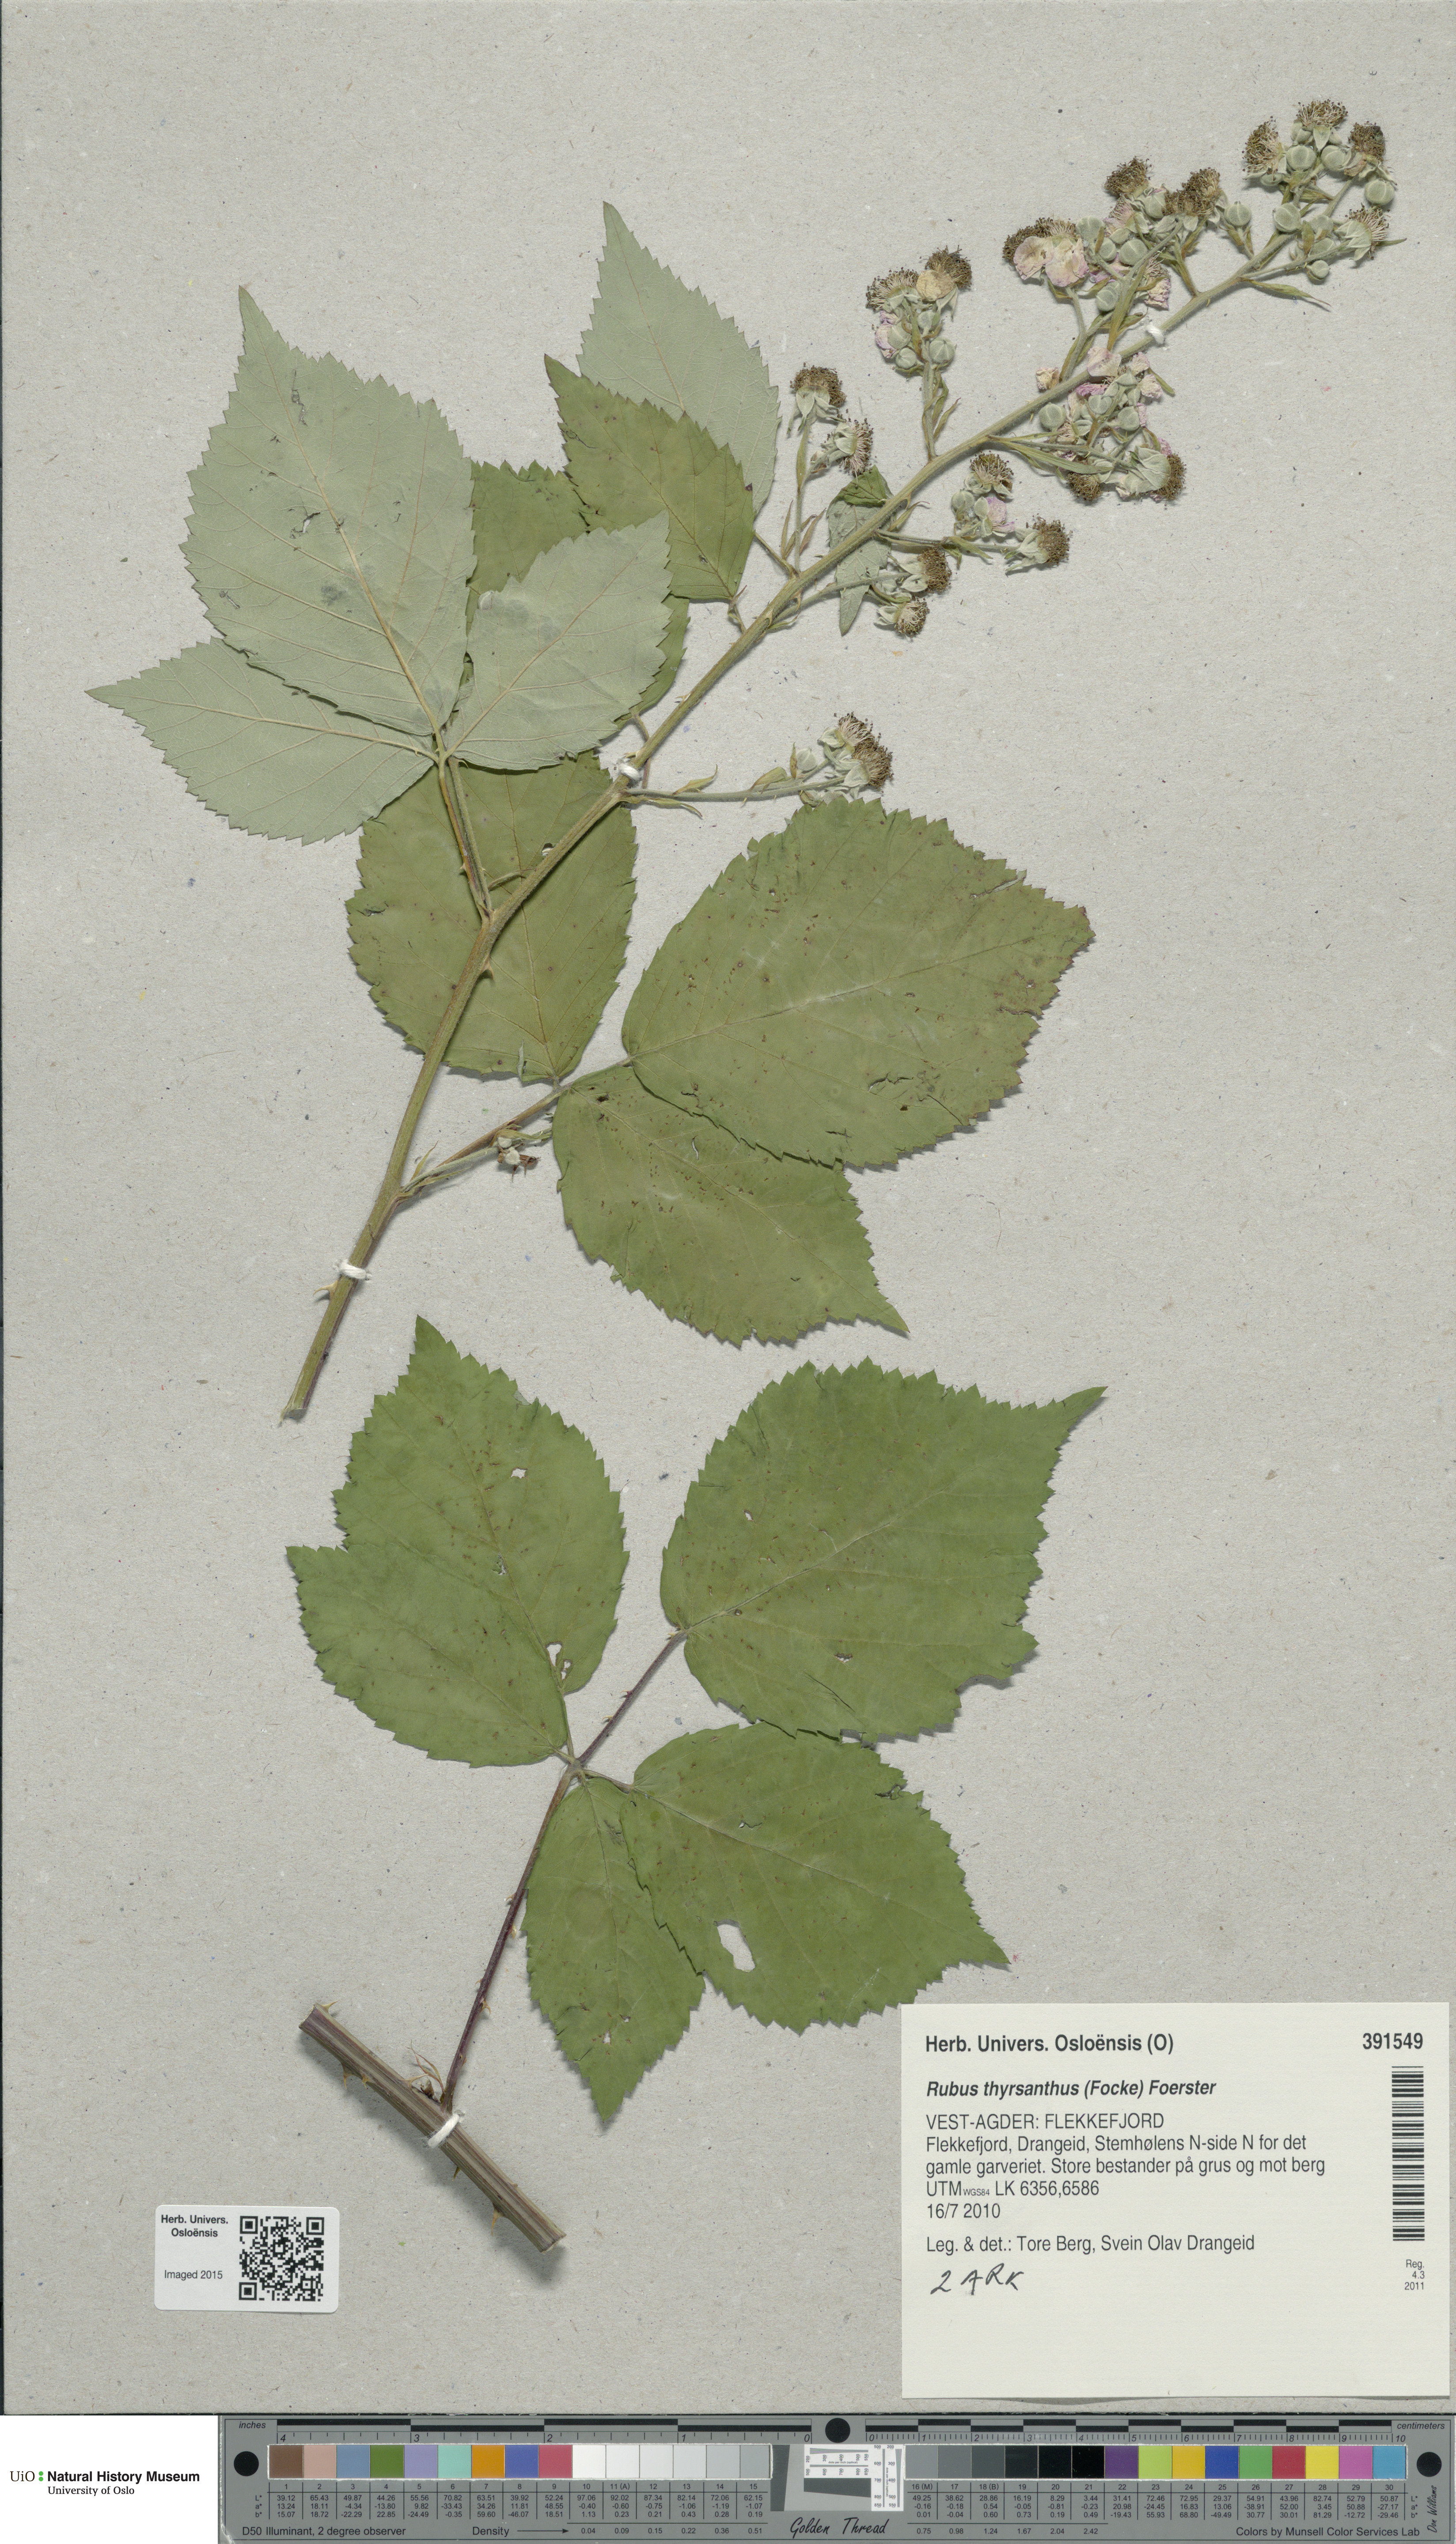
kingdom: Plantae
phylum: Tracheophyta
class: Magnoliopsida
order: Rosales
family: Rosaceae
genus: Rubus
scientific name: Rubus grabowskii
